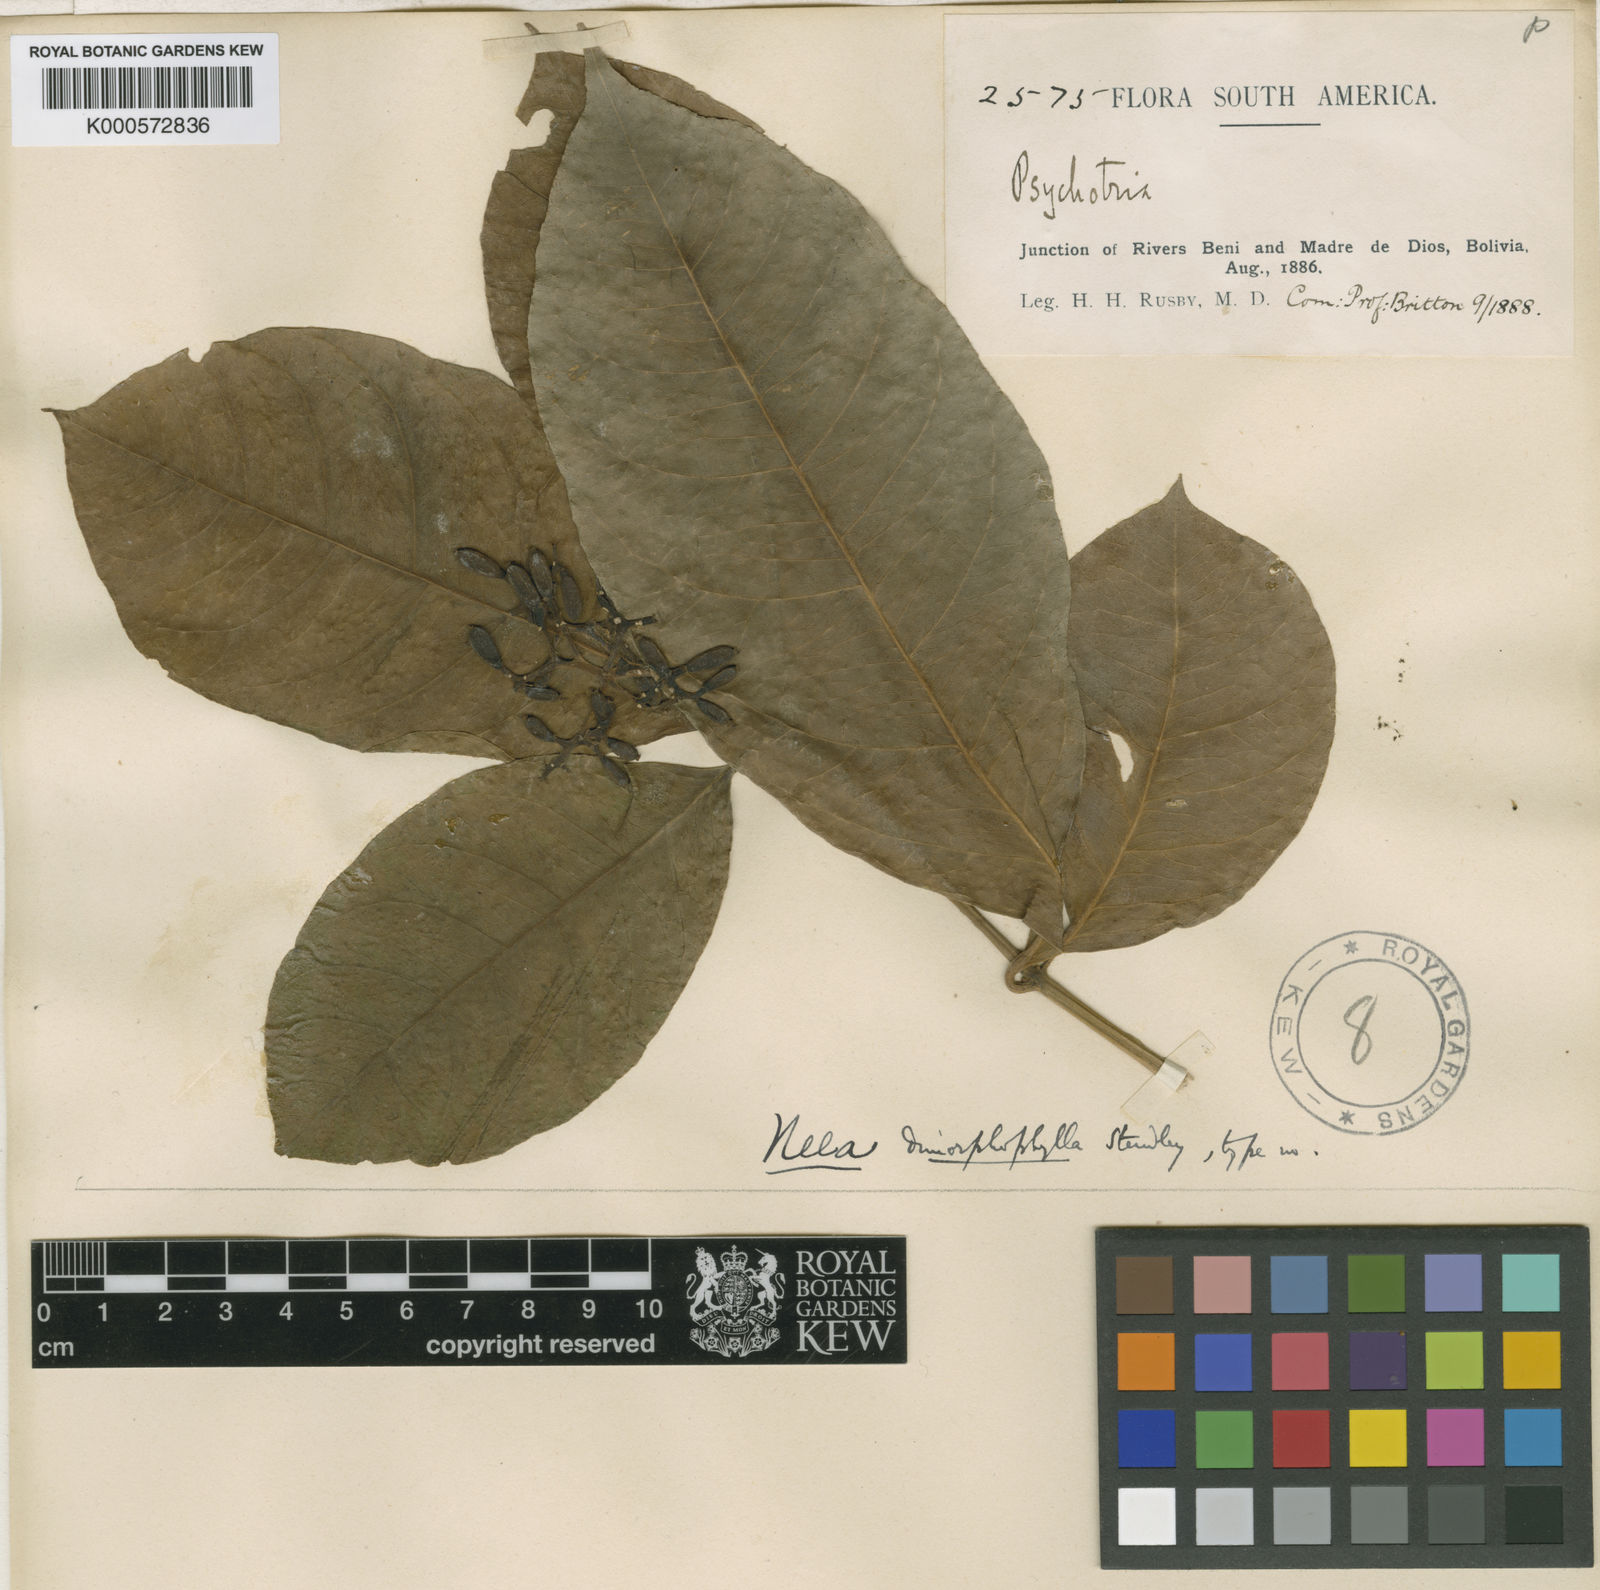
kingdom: Plantae
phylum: Tracheophyta
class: Magnoliopsida
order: Caryophyllales
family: Nyctaginaceae
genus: Neea
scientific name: Neea dimorphophylla
